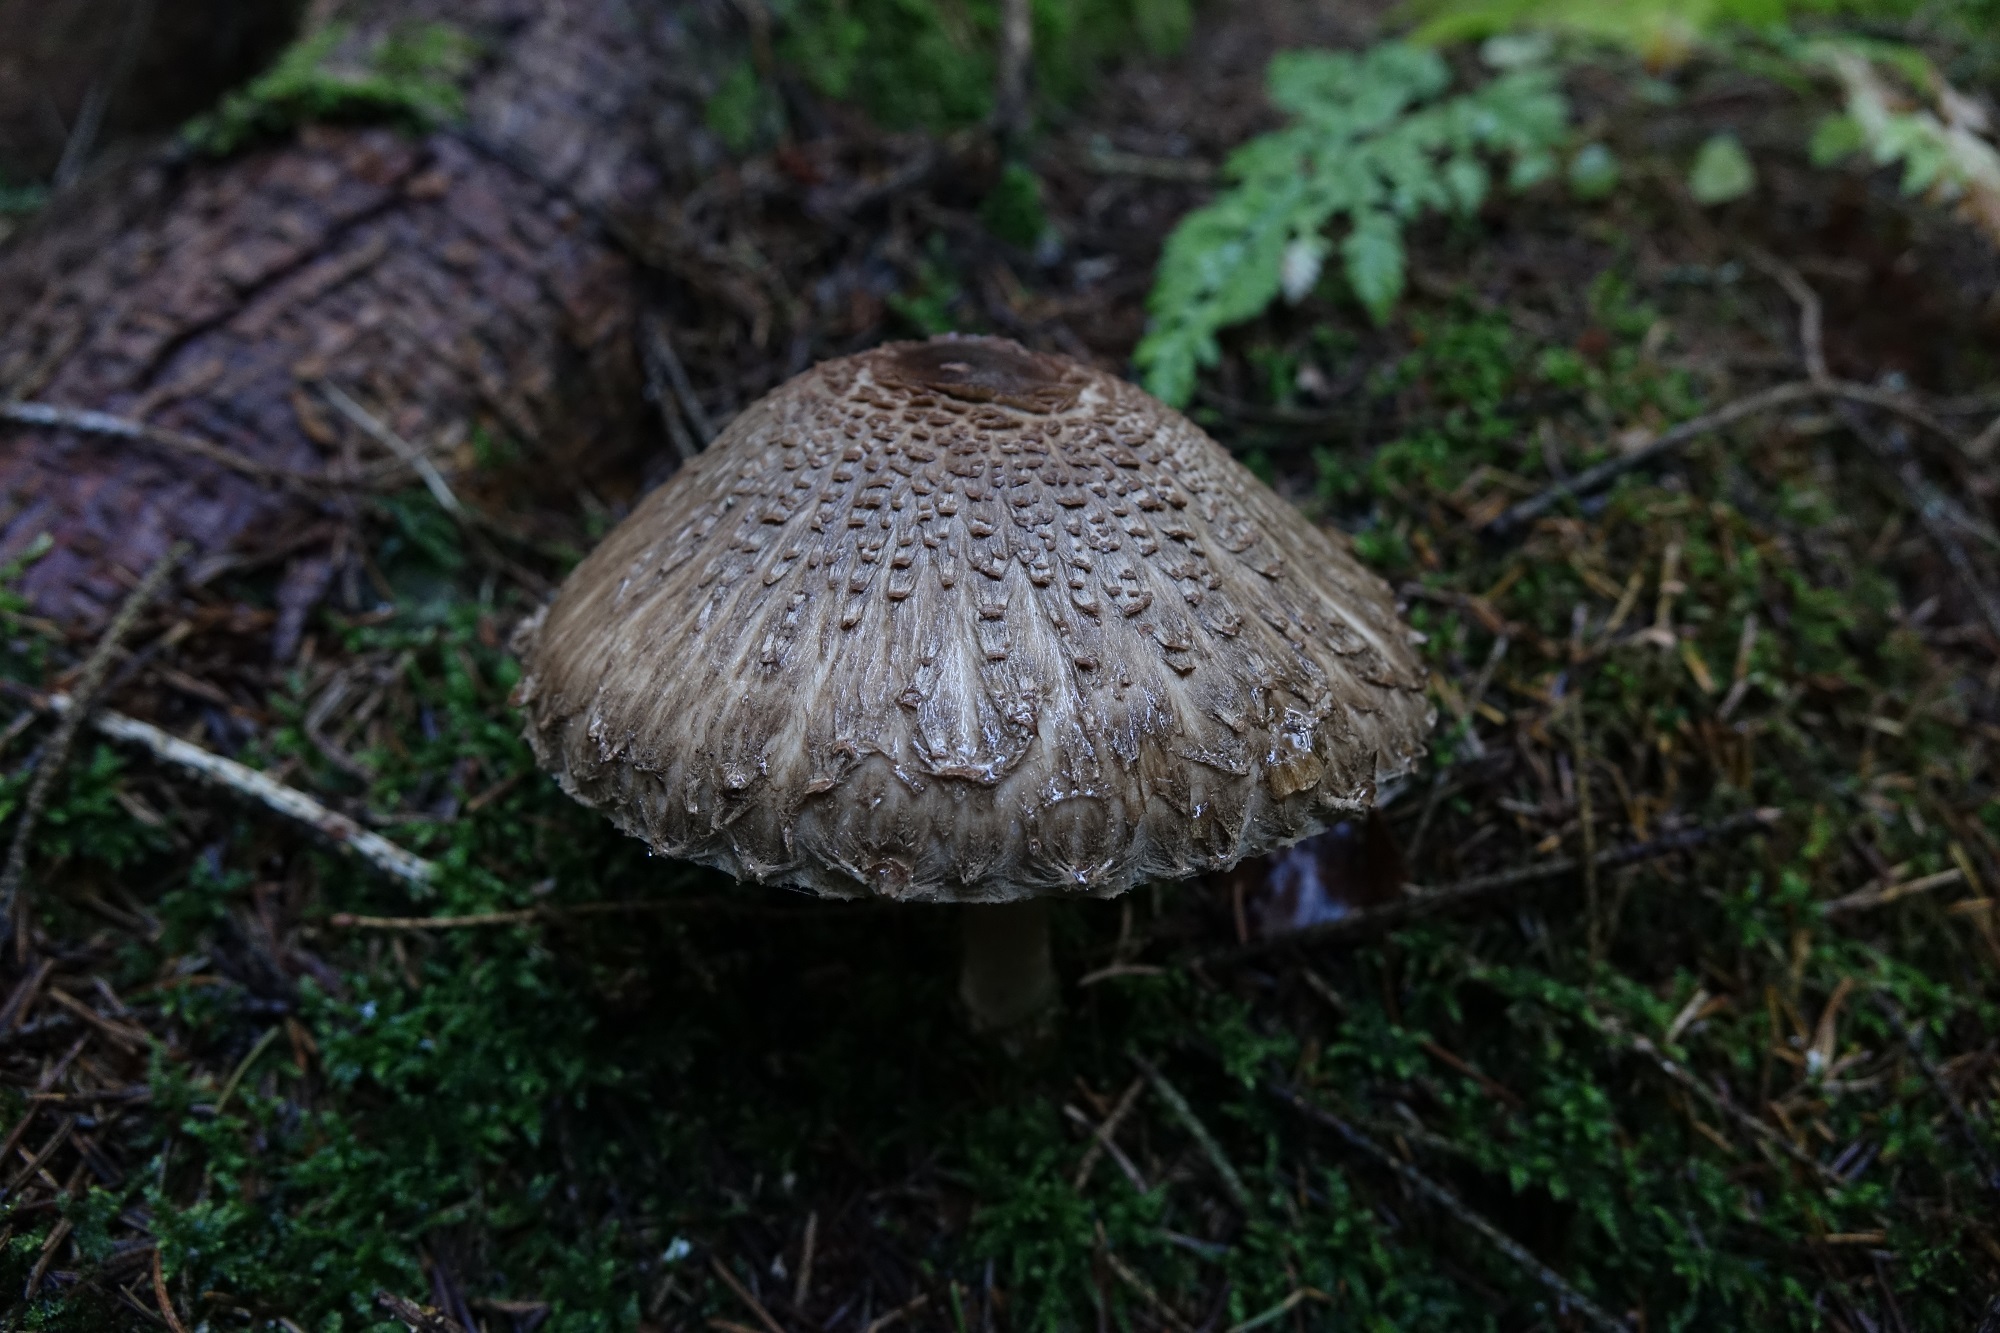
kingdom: Fungi
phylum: Basidiomycota
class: Agaricomycetes
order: Agaricales
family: Agaricaceae
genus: Chlorophyllum
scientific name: Chlorophyllum olivieri
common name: Conifer parasol
